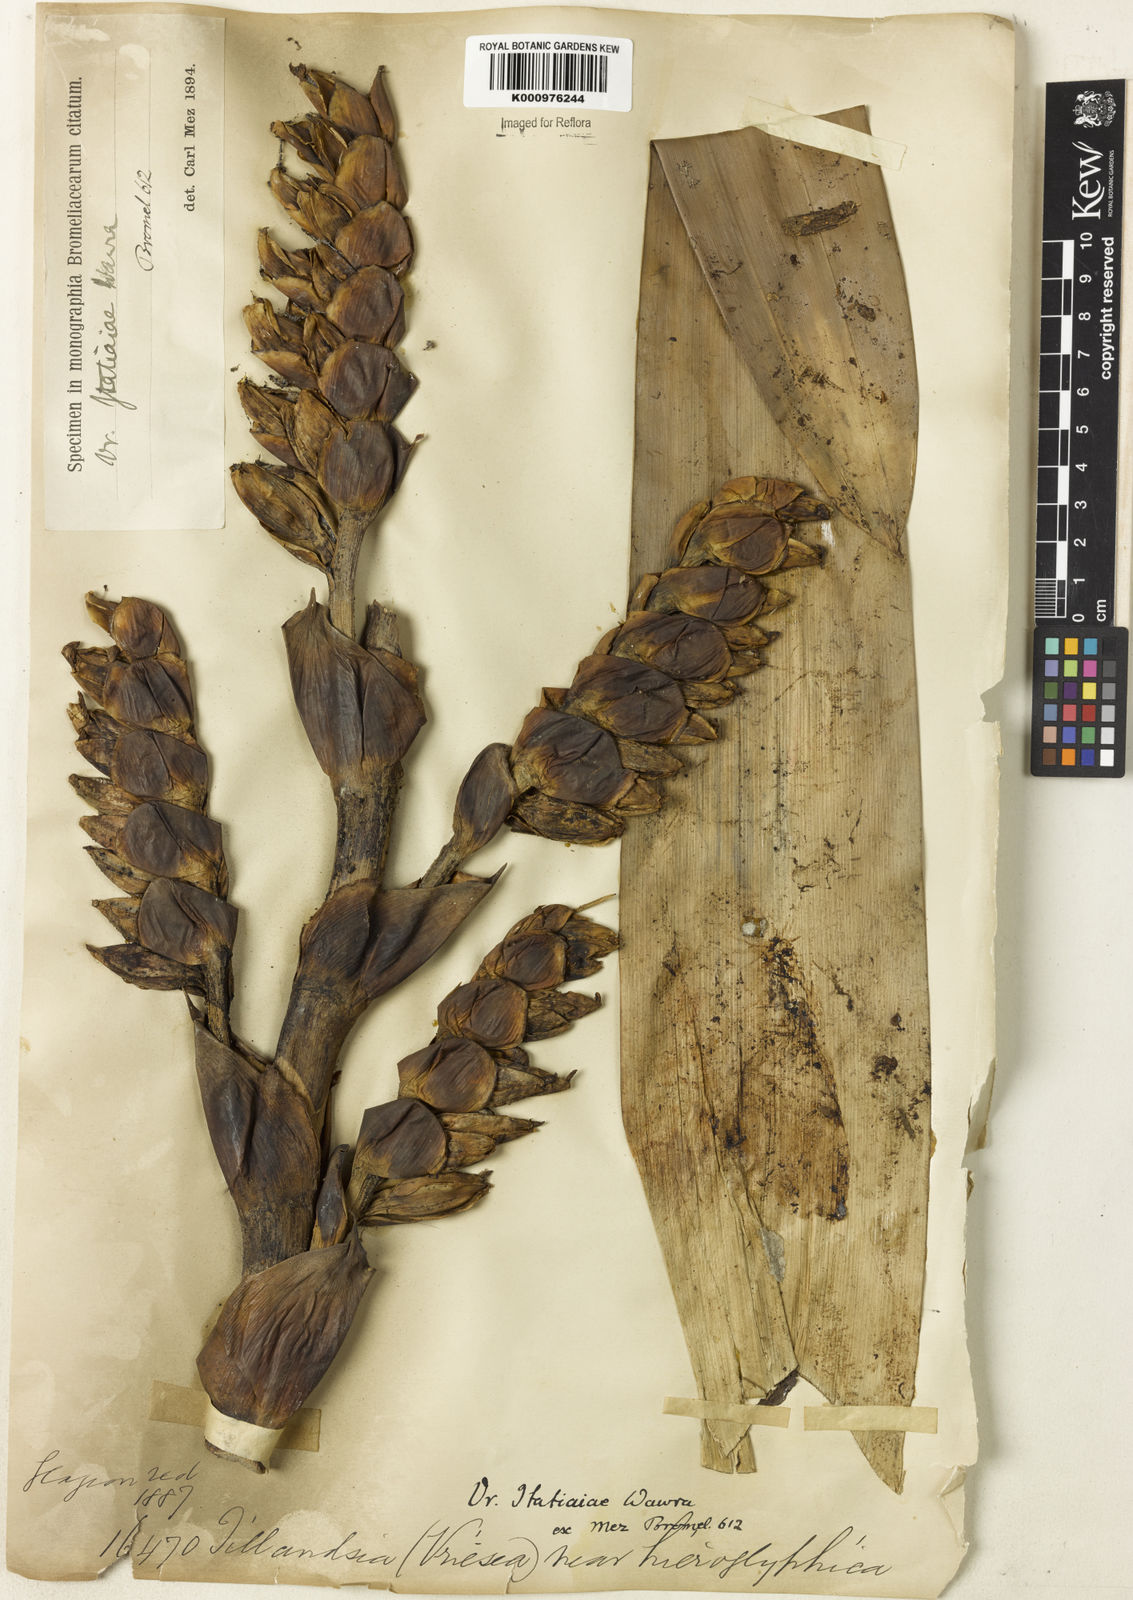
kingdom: Plantae
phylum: Tracheophyta
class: Liliopsida
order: Poales
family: Bromeliaceae
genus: Vriesea
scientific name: Vriesea itatiaiae
